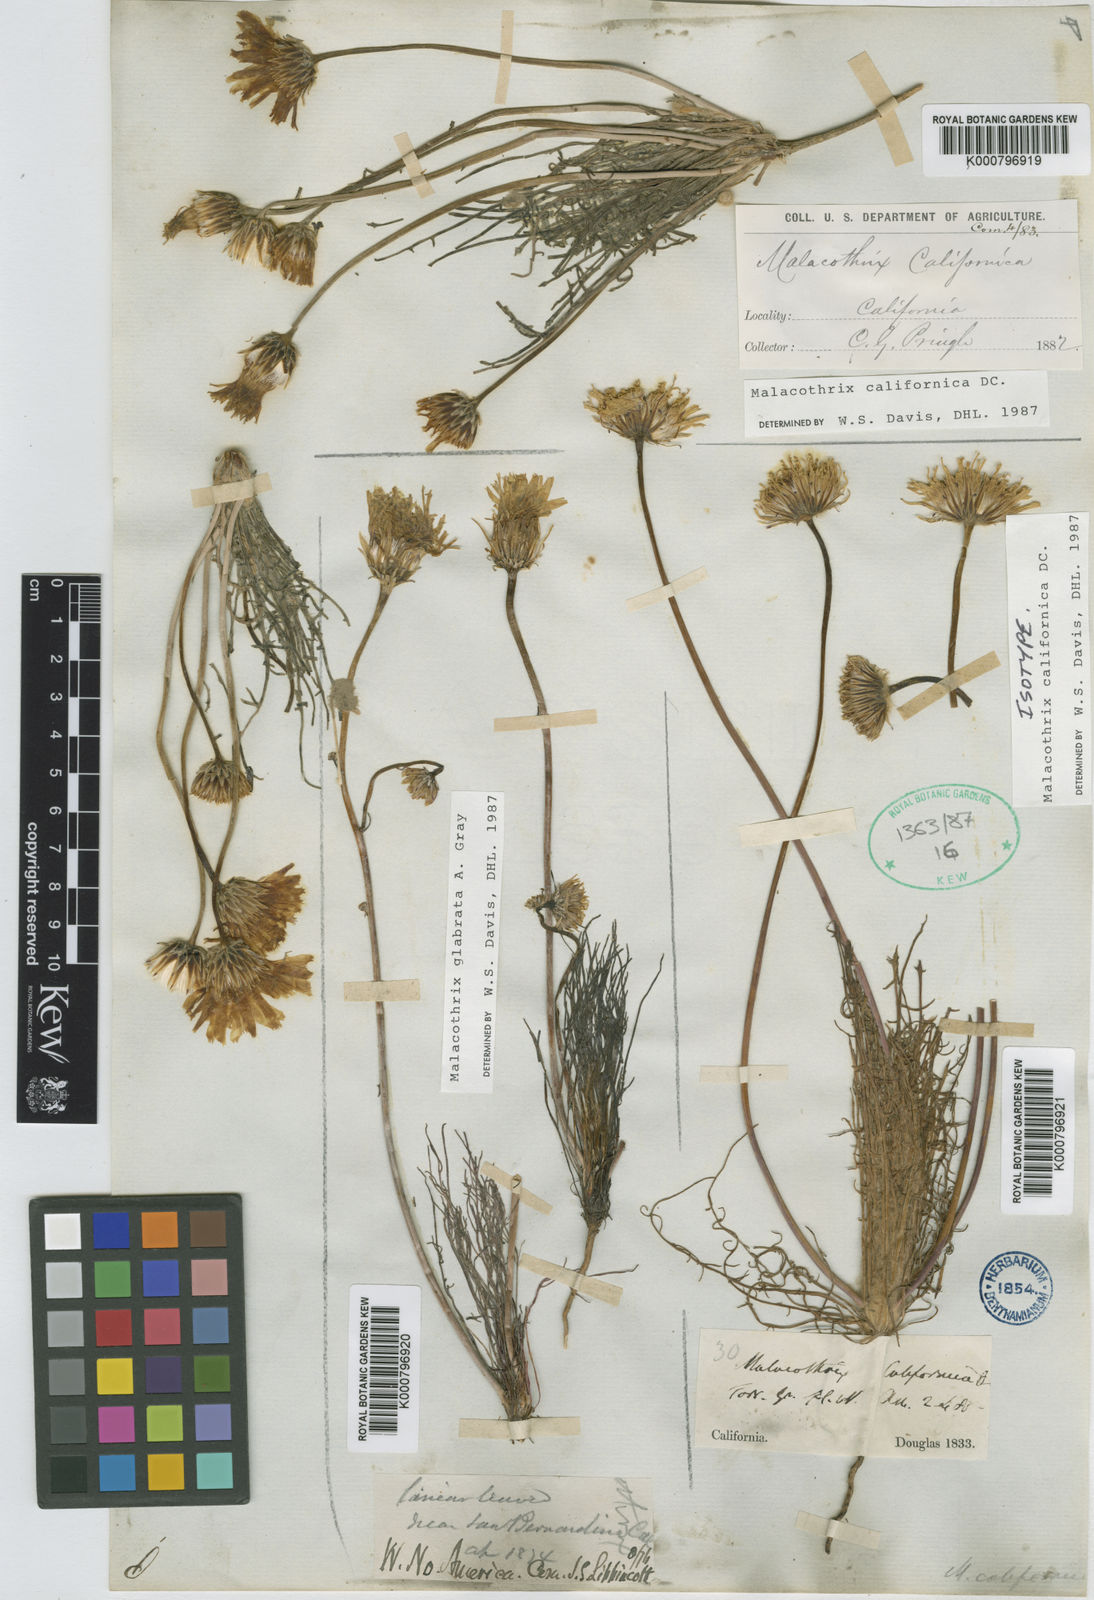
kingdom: Plantae
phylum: Tracheophyta
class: Magnoliopsida
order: Asterales
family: Asteraceae
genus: Malacothrix
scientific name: Malacothrix californica
